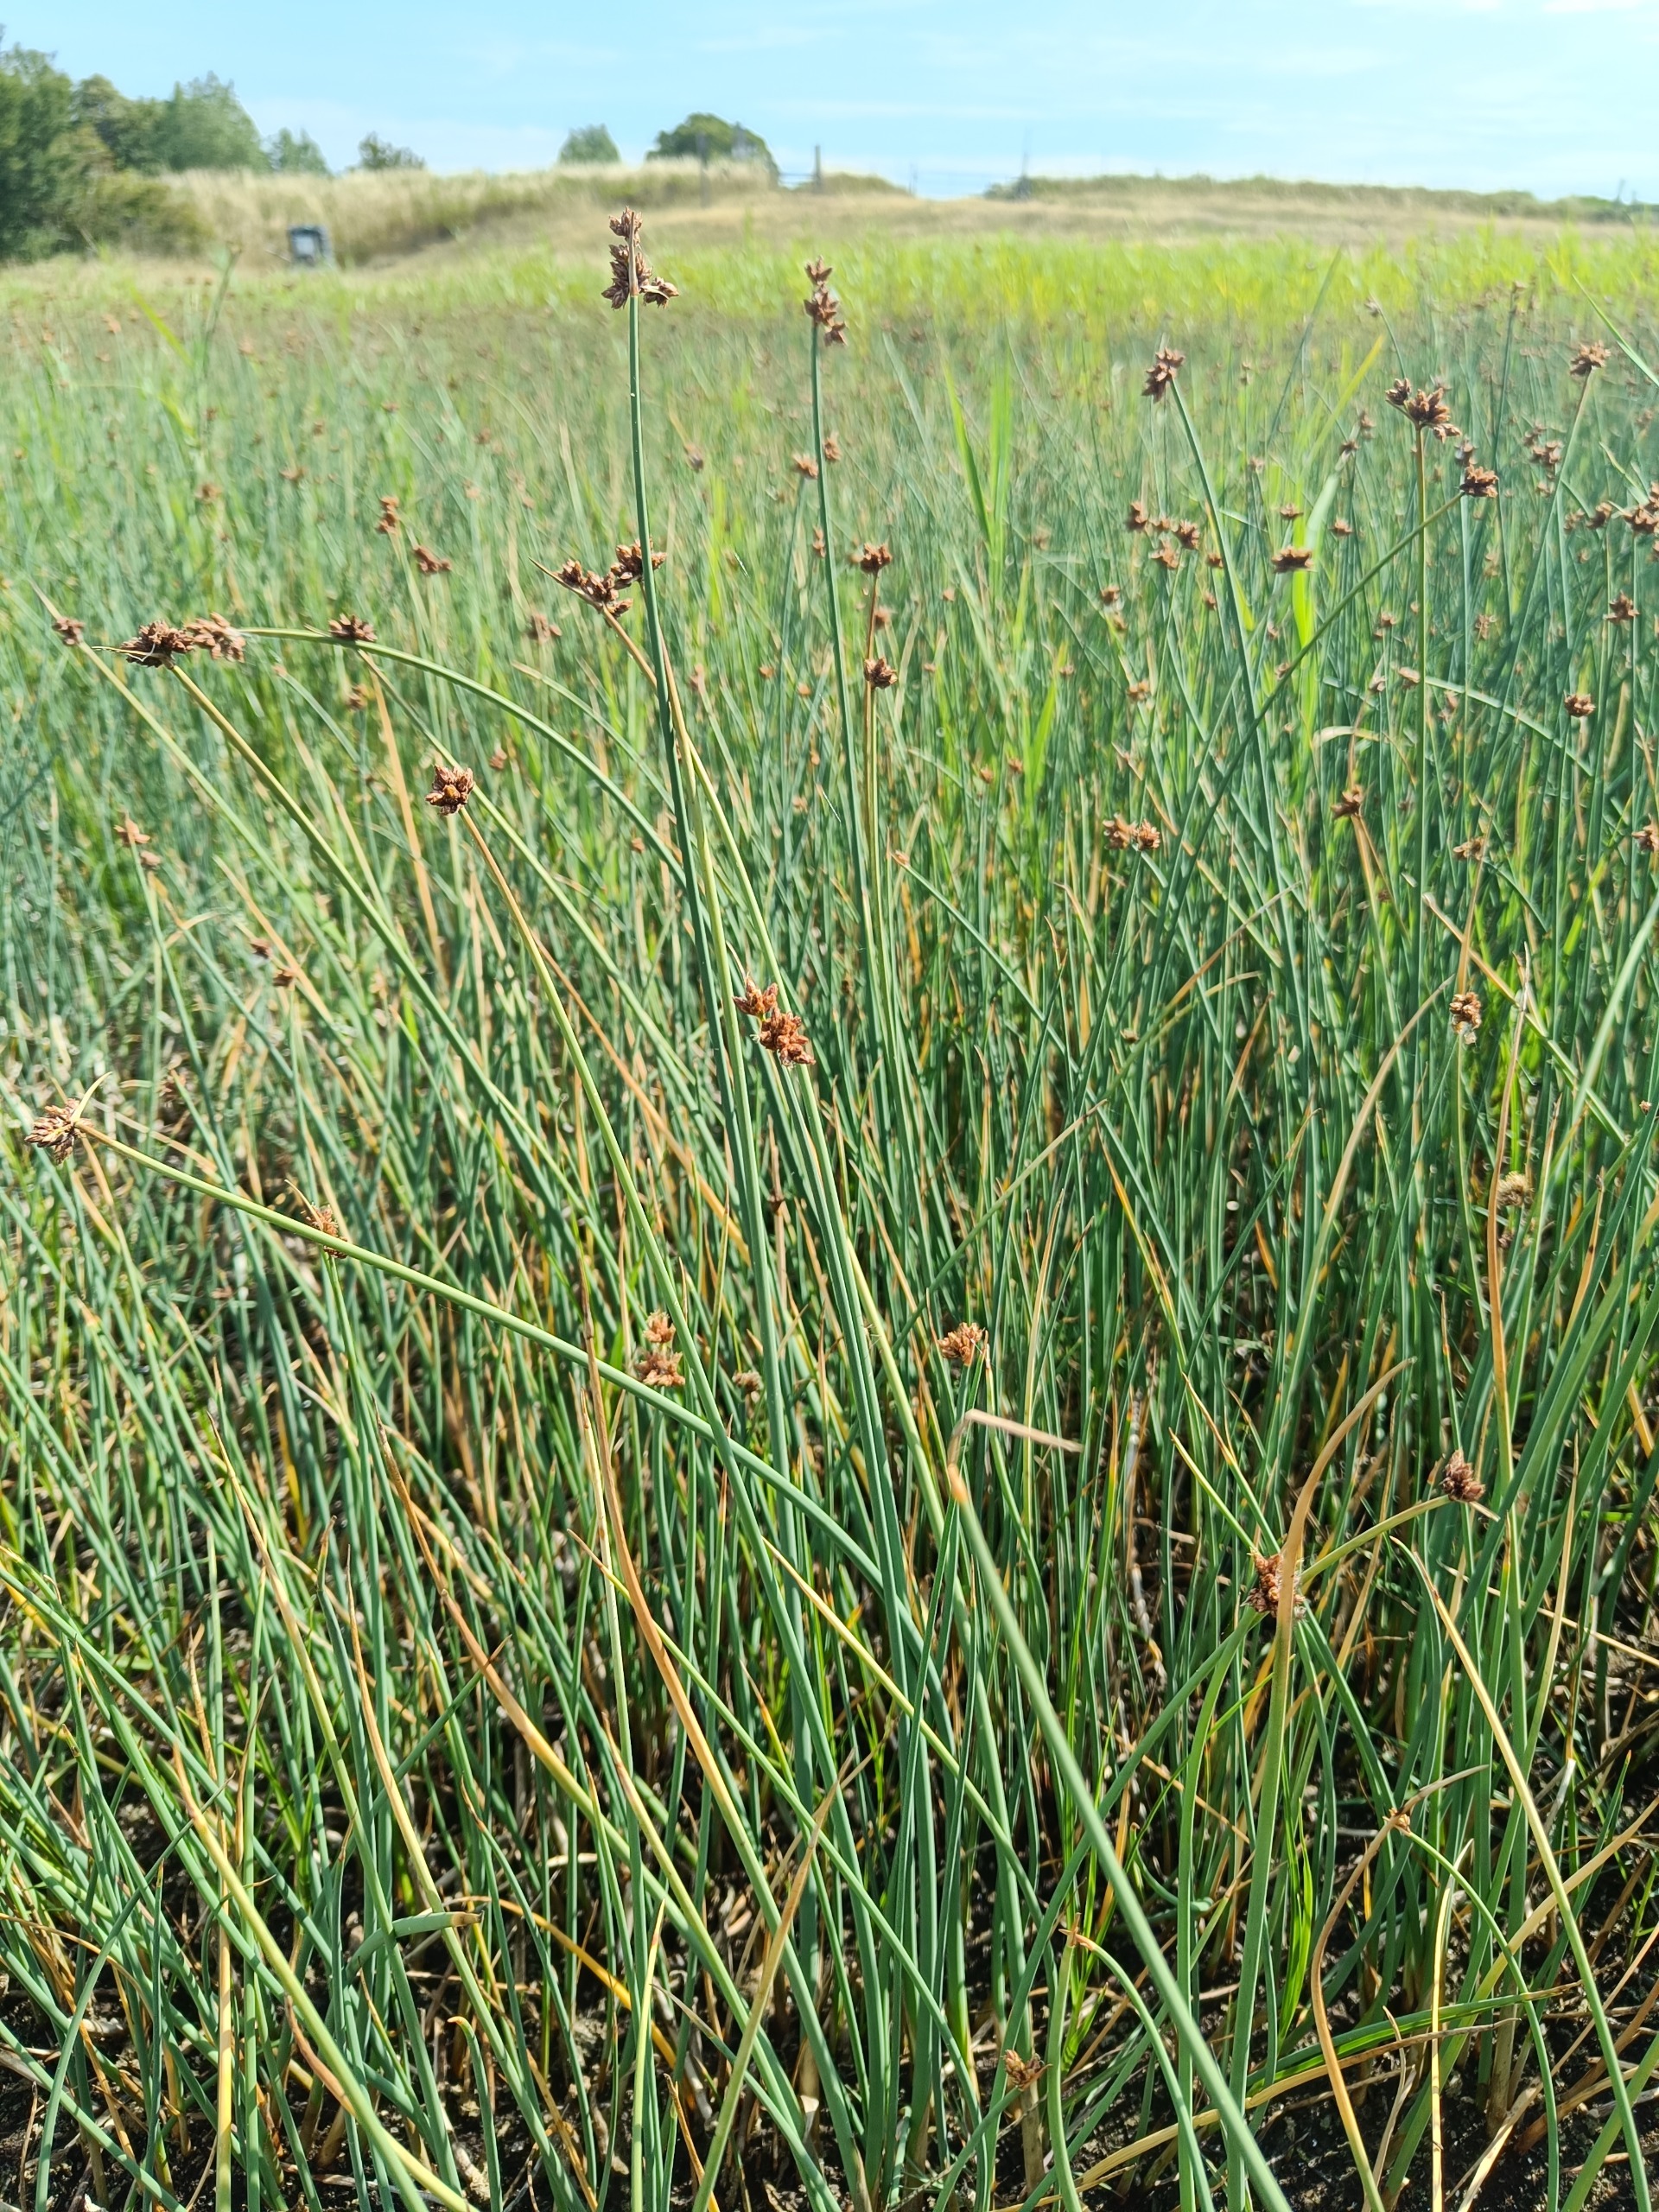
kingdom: Plantae
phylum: Tracheophyta
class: Liliopsida
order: Poales
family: Cyperaceae
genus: Schoenoplectus
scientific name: Schoenoplectus tabernaemontani
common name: Blågrøn kogleaks
